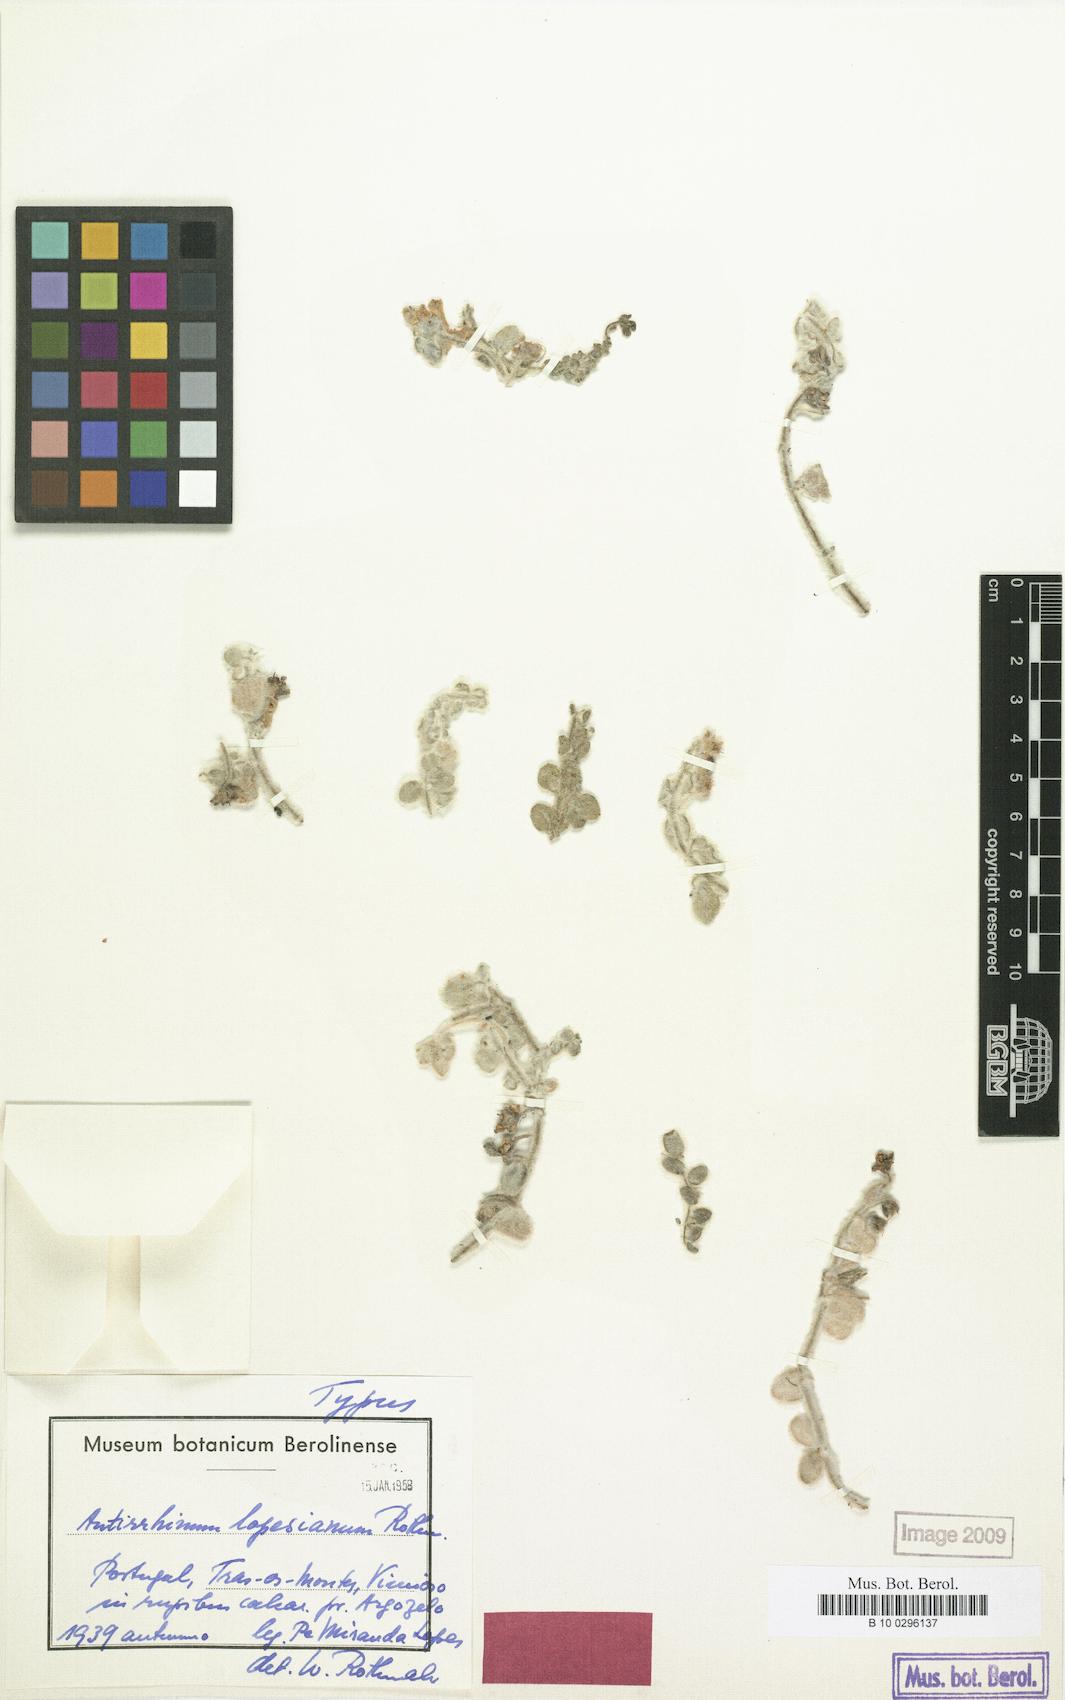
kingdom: Plantae
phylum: Tracheophyta
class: Magnoliopsida
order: Lamiales
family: Plantaginaceae
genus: Antirrhinum
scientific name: Antirrhinum lopesianum
